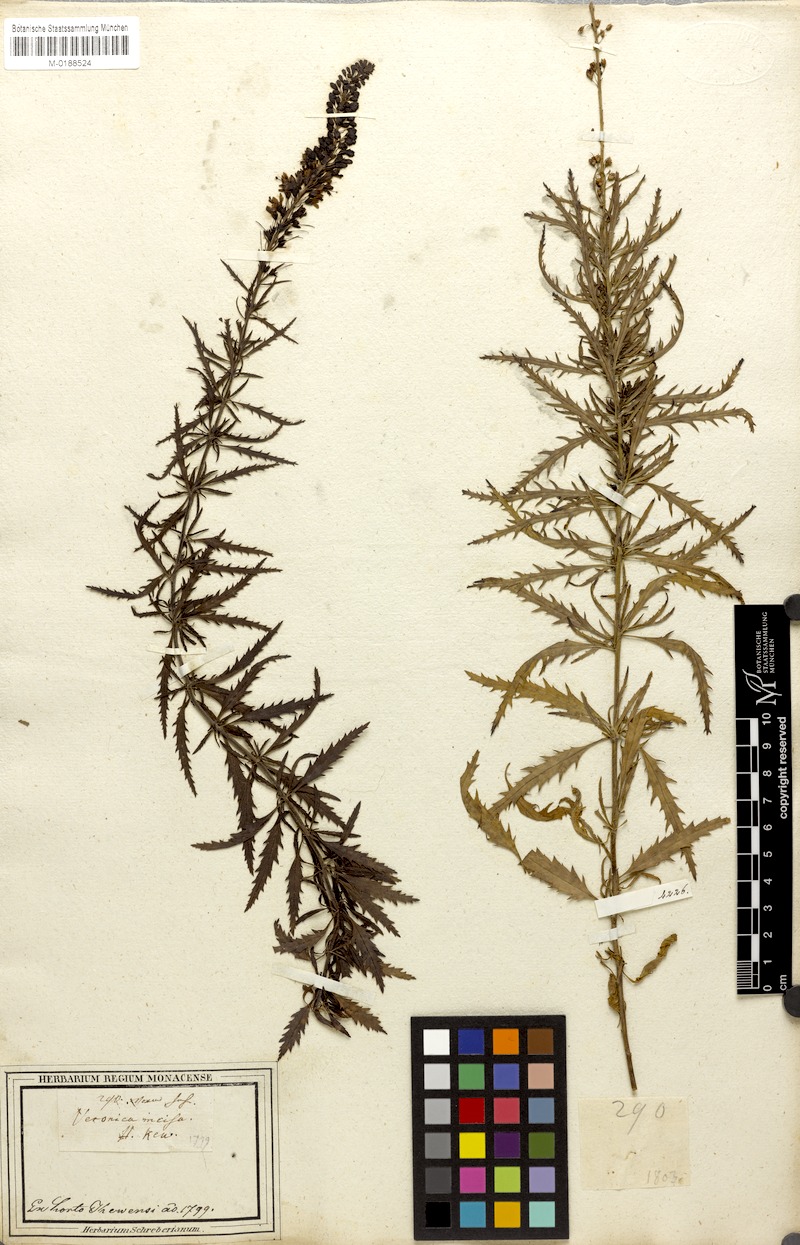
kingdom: Plantae
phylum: Tracheophyta
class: Magnoliopsida
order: Lamiales
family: Plantaginaceae
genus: Veronica
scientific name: Veronica spuria
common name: Bastard speedwell
